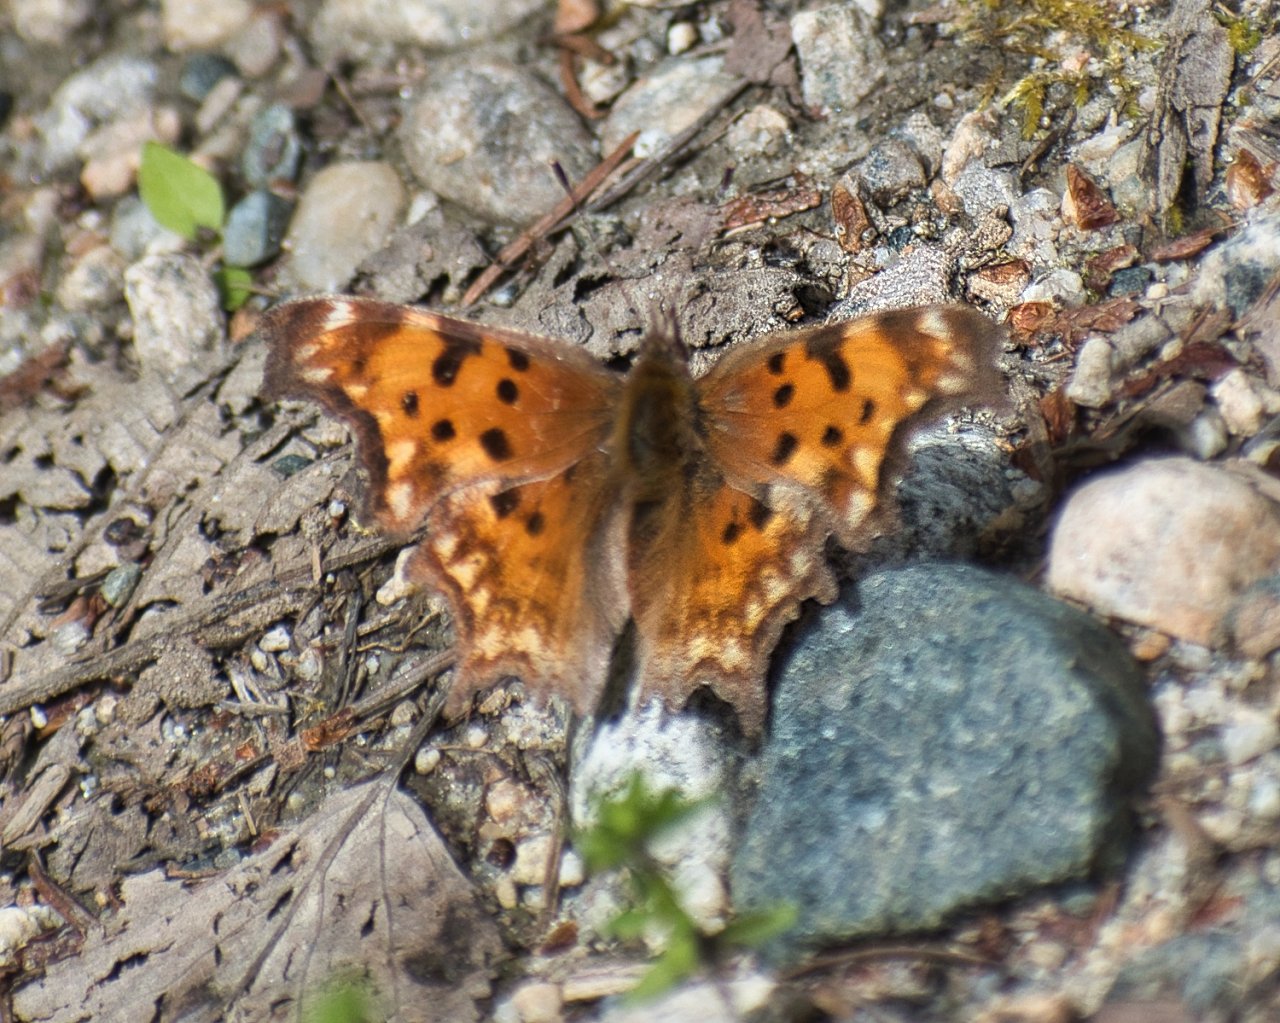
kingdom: Animalia
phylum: Arthropoda
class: Insecta
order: Lepidoptera
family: Nymphalidae
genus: Polygonia
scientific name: Polygonia gracilis
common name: Hoary Comma
